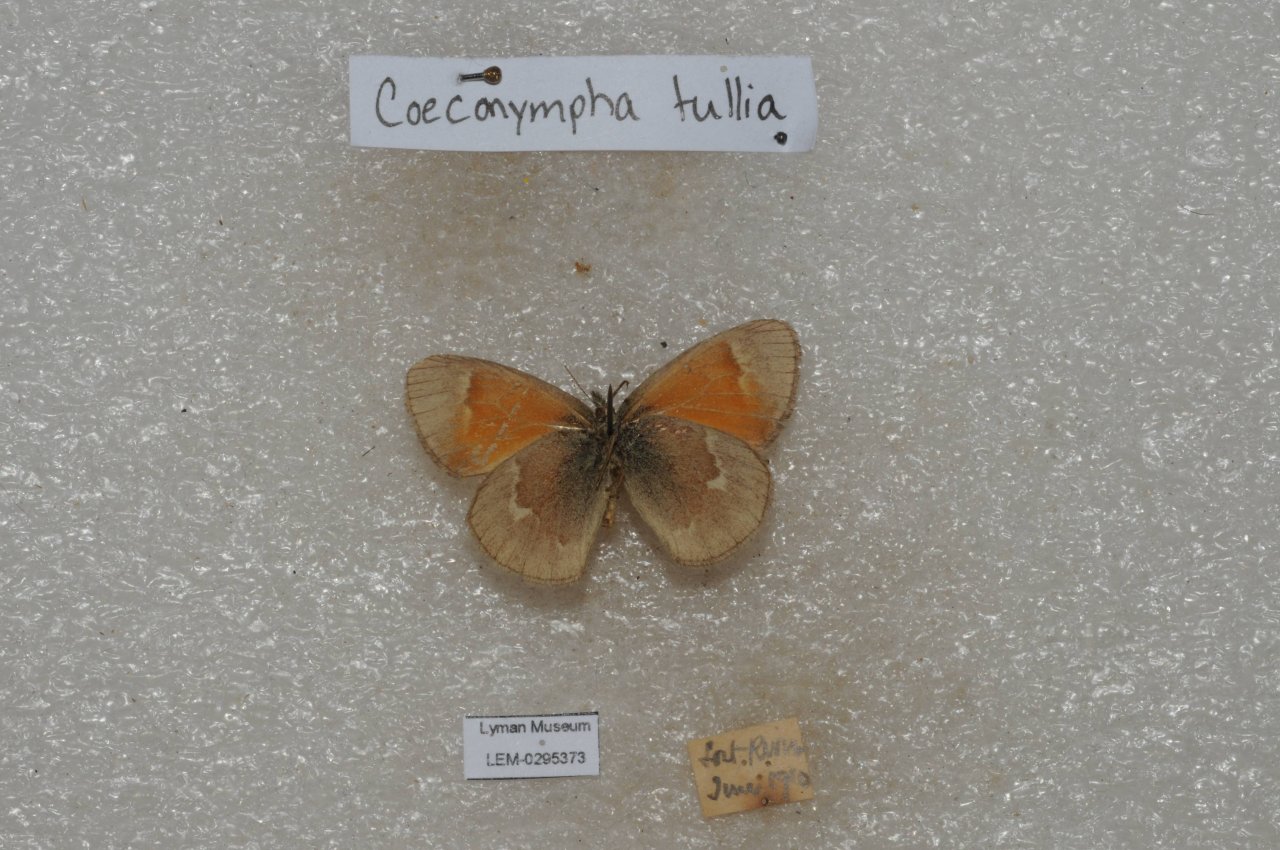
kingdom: Animalia
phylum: Arthropoda
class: Insecta
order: Lepidoptera
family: Nymphalidae
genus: Coenonympha
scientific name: Coenonympha tullia
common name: Large Heath
